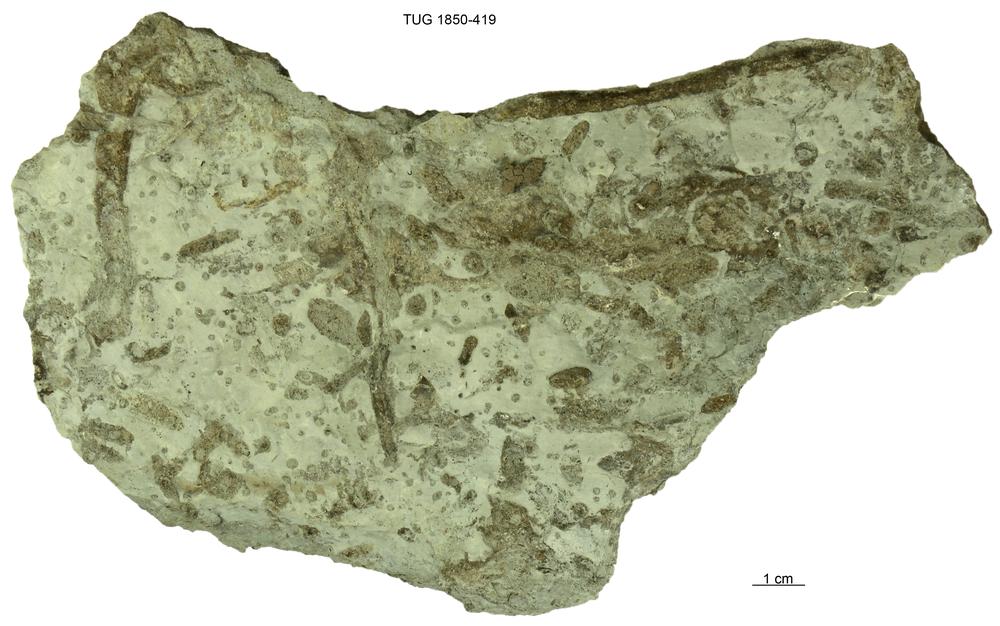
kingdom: Animalia
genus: Chondrites
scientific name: Chondrites
